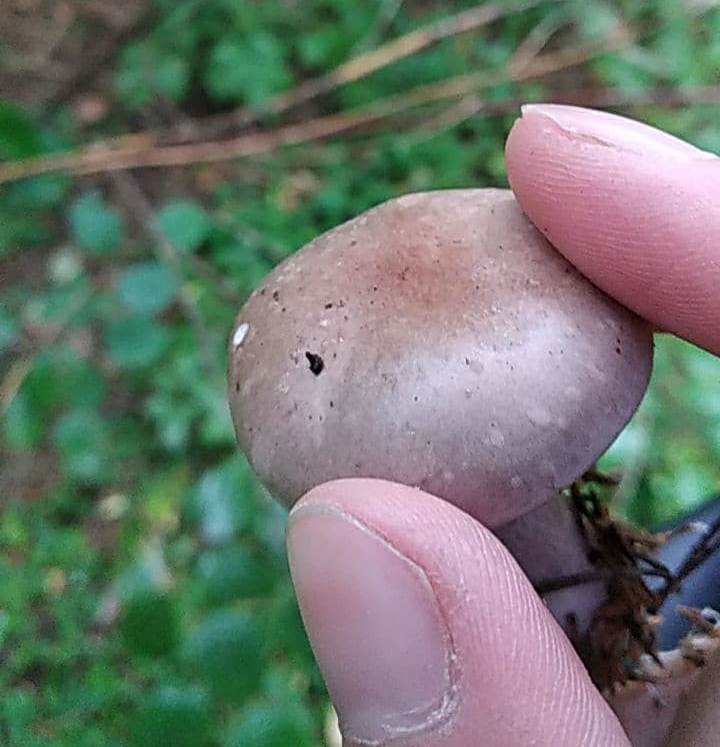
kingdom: Fungi
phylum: Basidiomycota
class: Agaricomycetes
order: Agaricales
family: Tricholomataceae
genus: Lepista
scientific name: Lepista nuda
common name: violet hekseringshat
